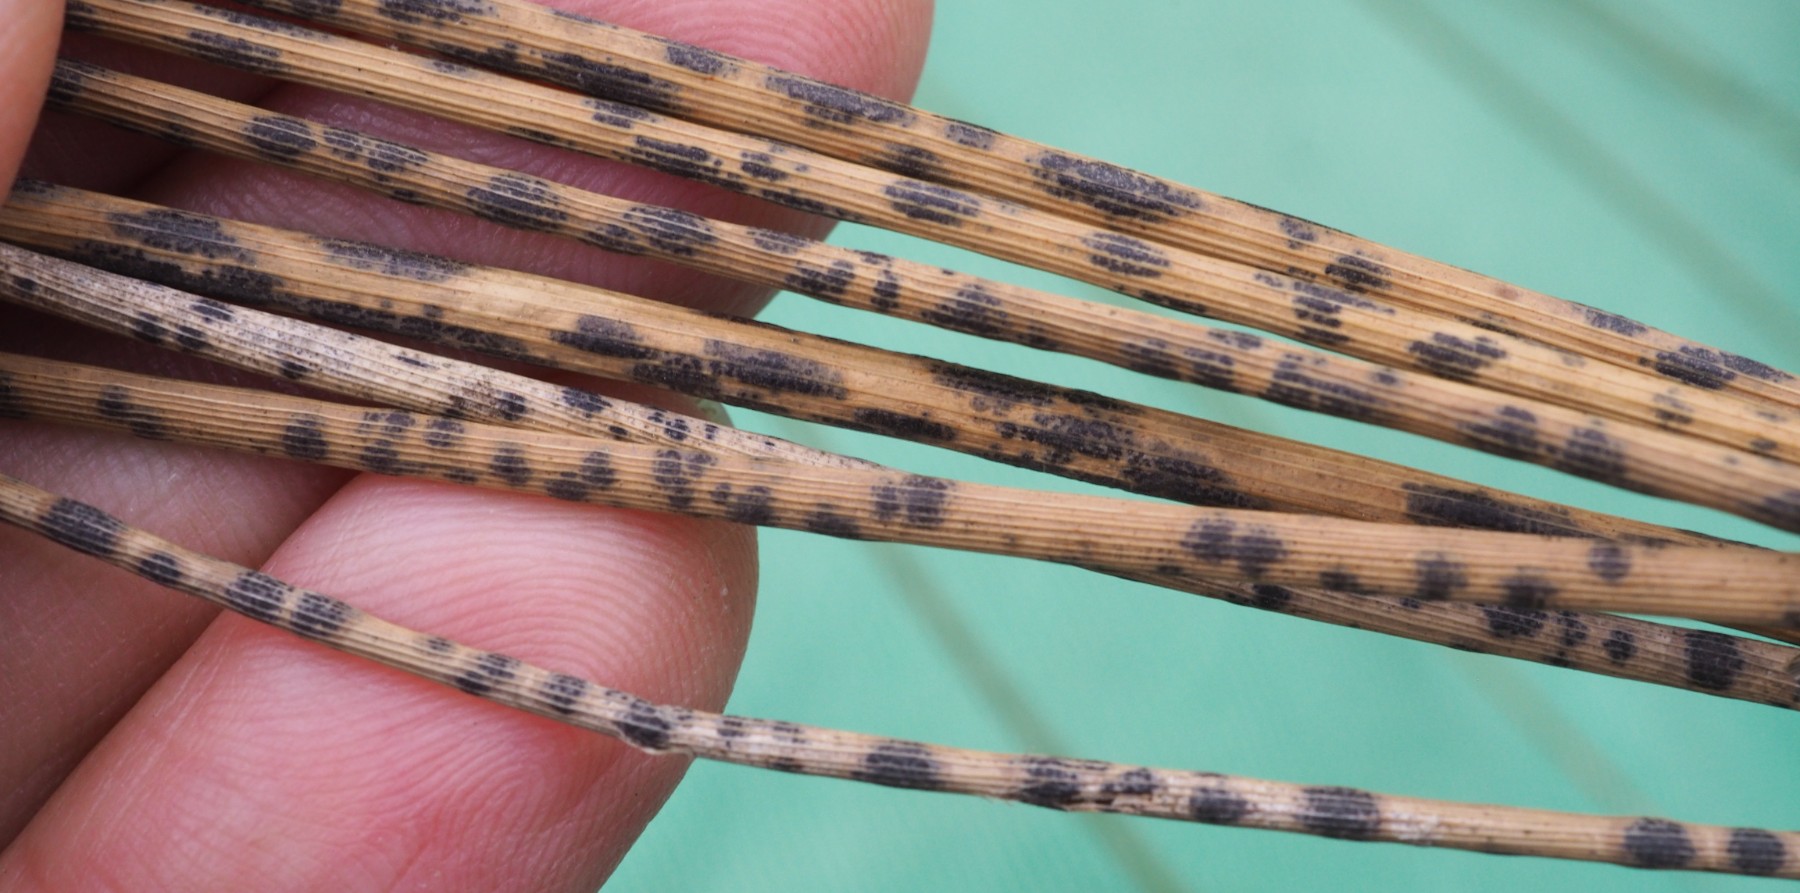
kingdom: Fungi
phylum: Ascomycota
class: Sordariomycetes
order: Phyllachorales
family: Phyllachoraceae
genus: Phyllachora
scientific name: Phyllachora
